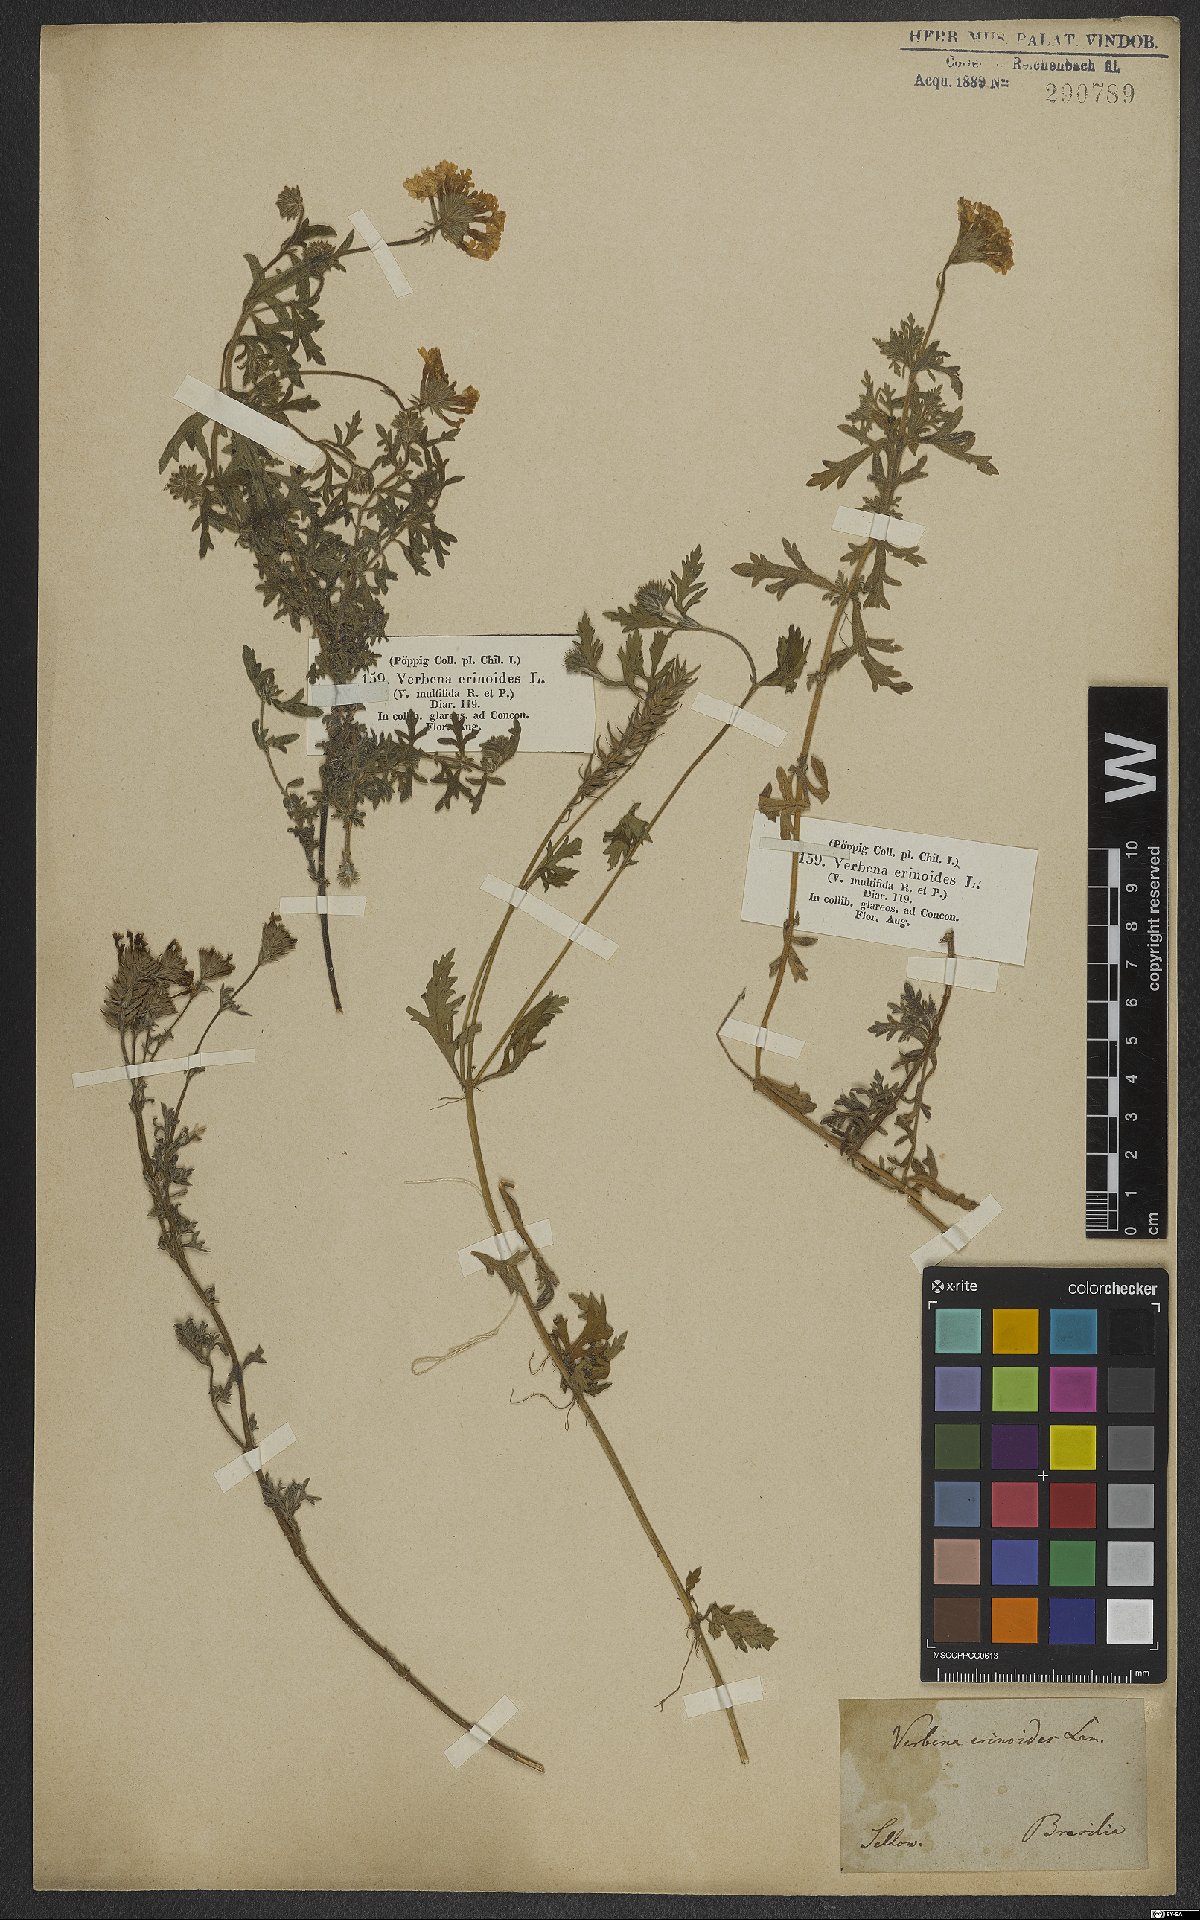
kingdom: Plantae
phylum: Tracheophyta
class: Magnoliopsida
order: Lamiales
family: Verbenaceae
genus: Verbena
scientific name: Verbena laciniata
